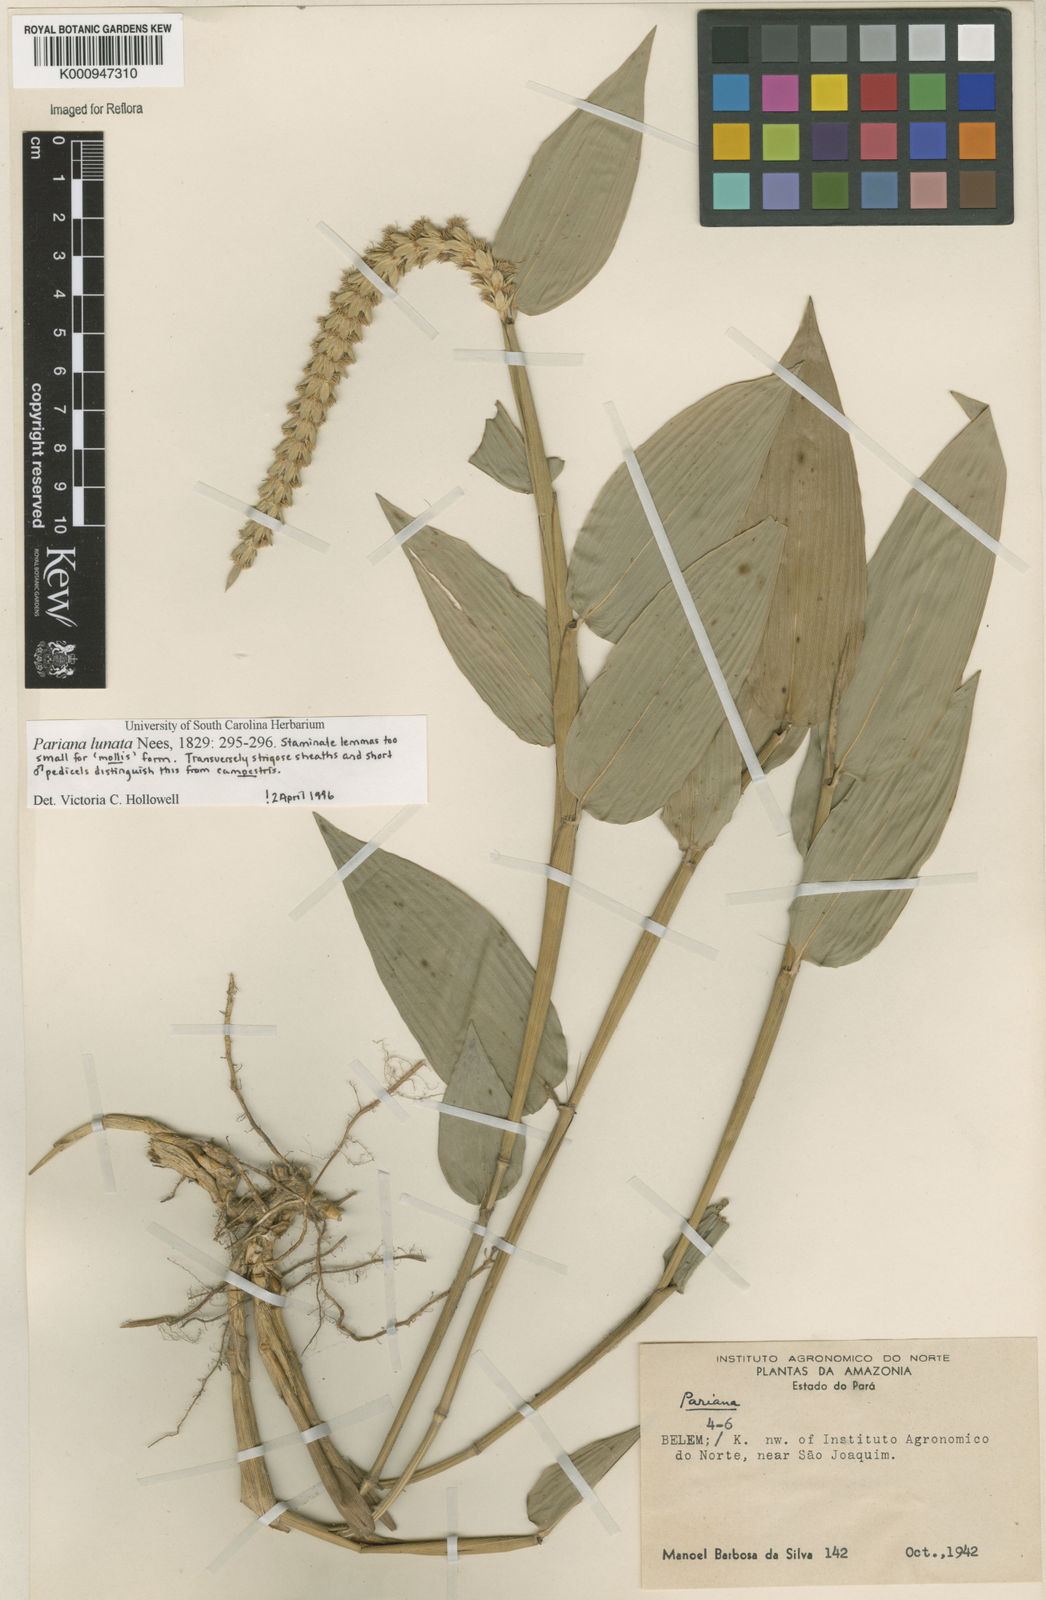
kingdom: Plantae
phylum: Tracheophyta
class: Liliopsida
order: Poales
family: Poaceae
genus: Pariana
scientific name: Pariana lunata
